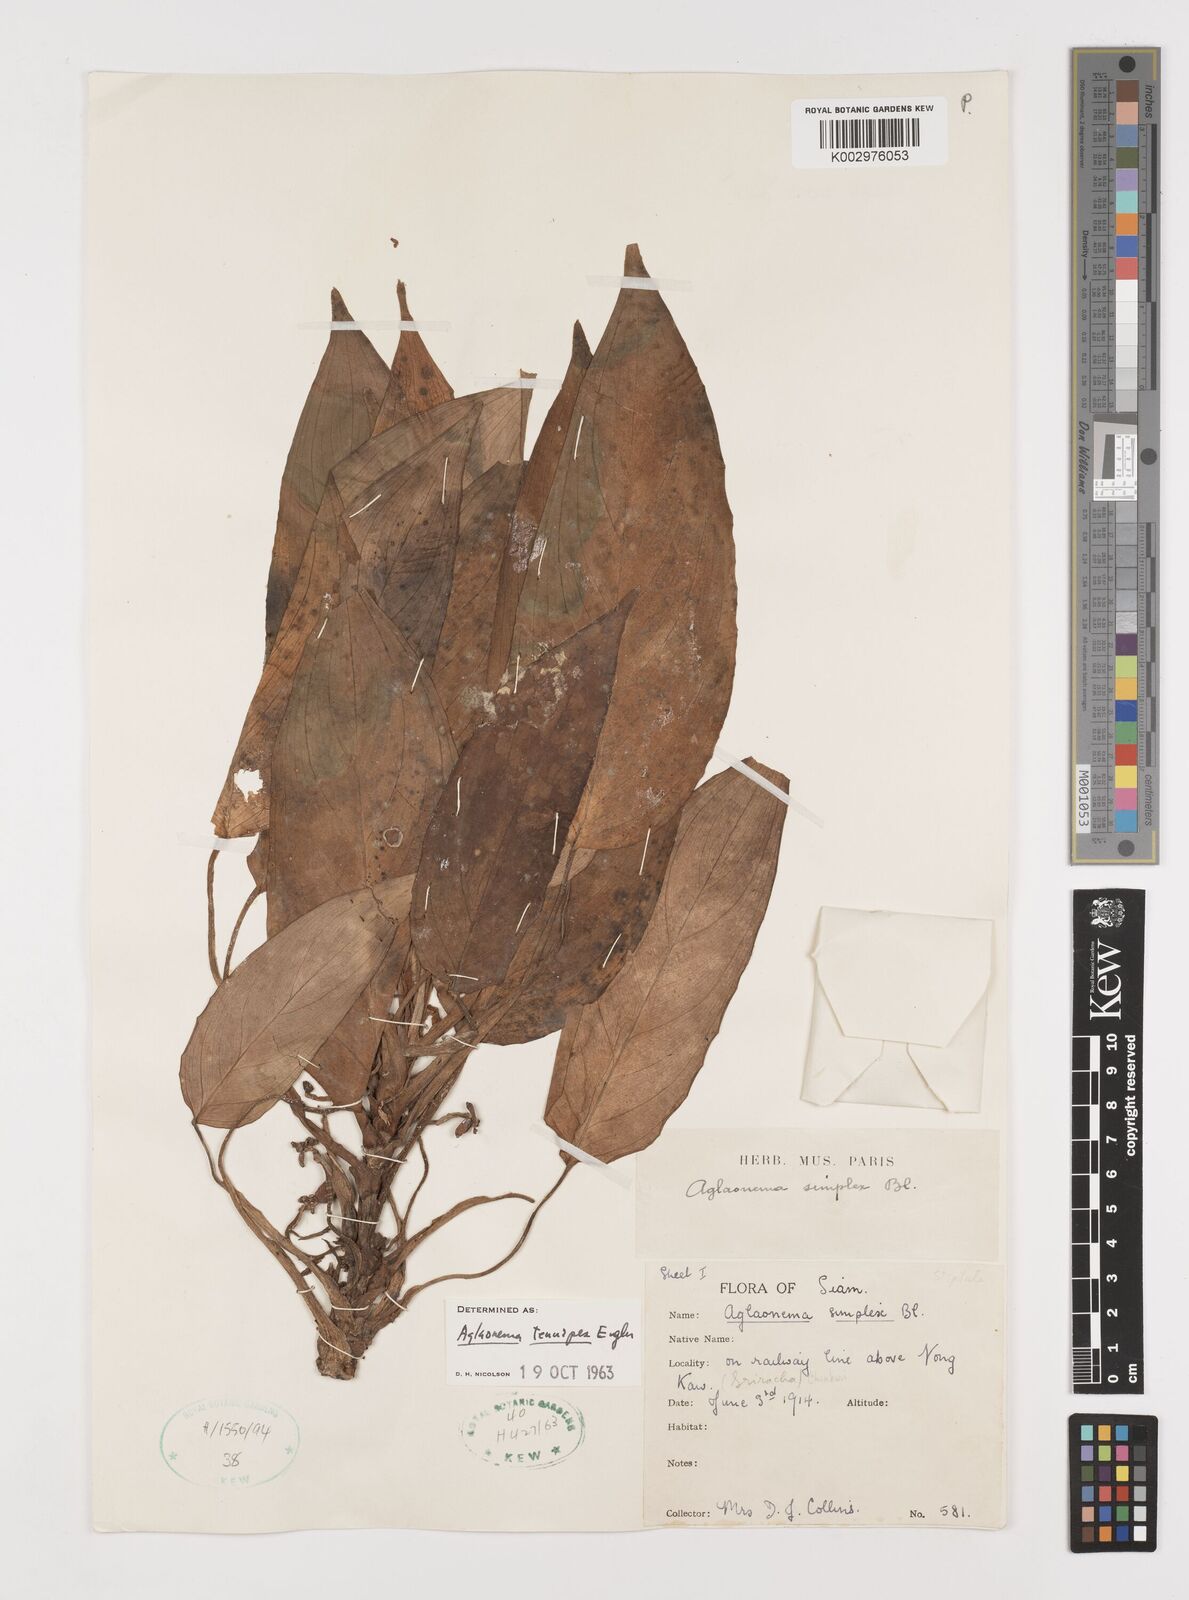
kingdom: Plantae
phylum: Tracheophyta
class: Liliopsida
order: Alismatales
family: Araceae
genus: Aglaonema
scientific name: Aglaonema simplex
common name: Malayan-sword
